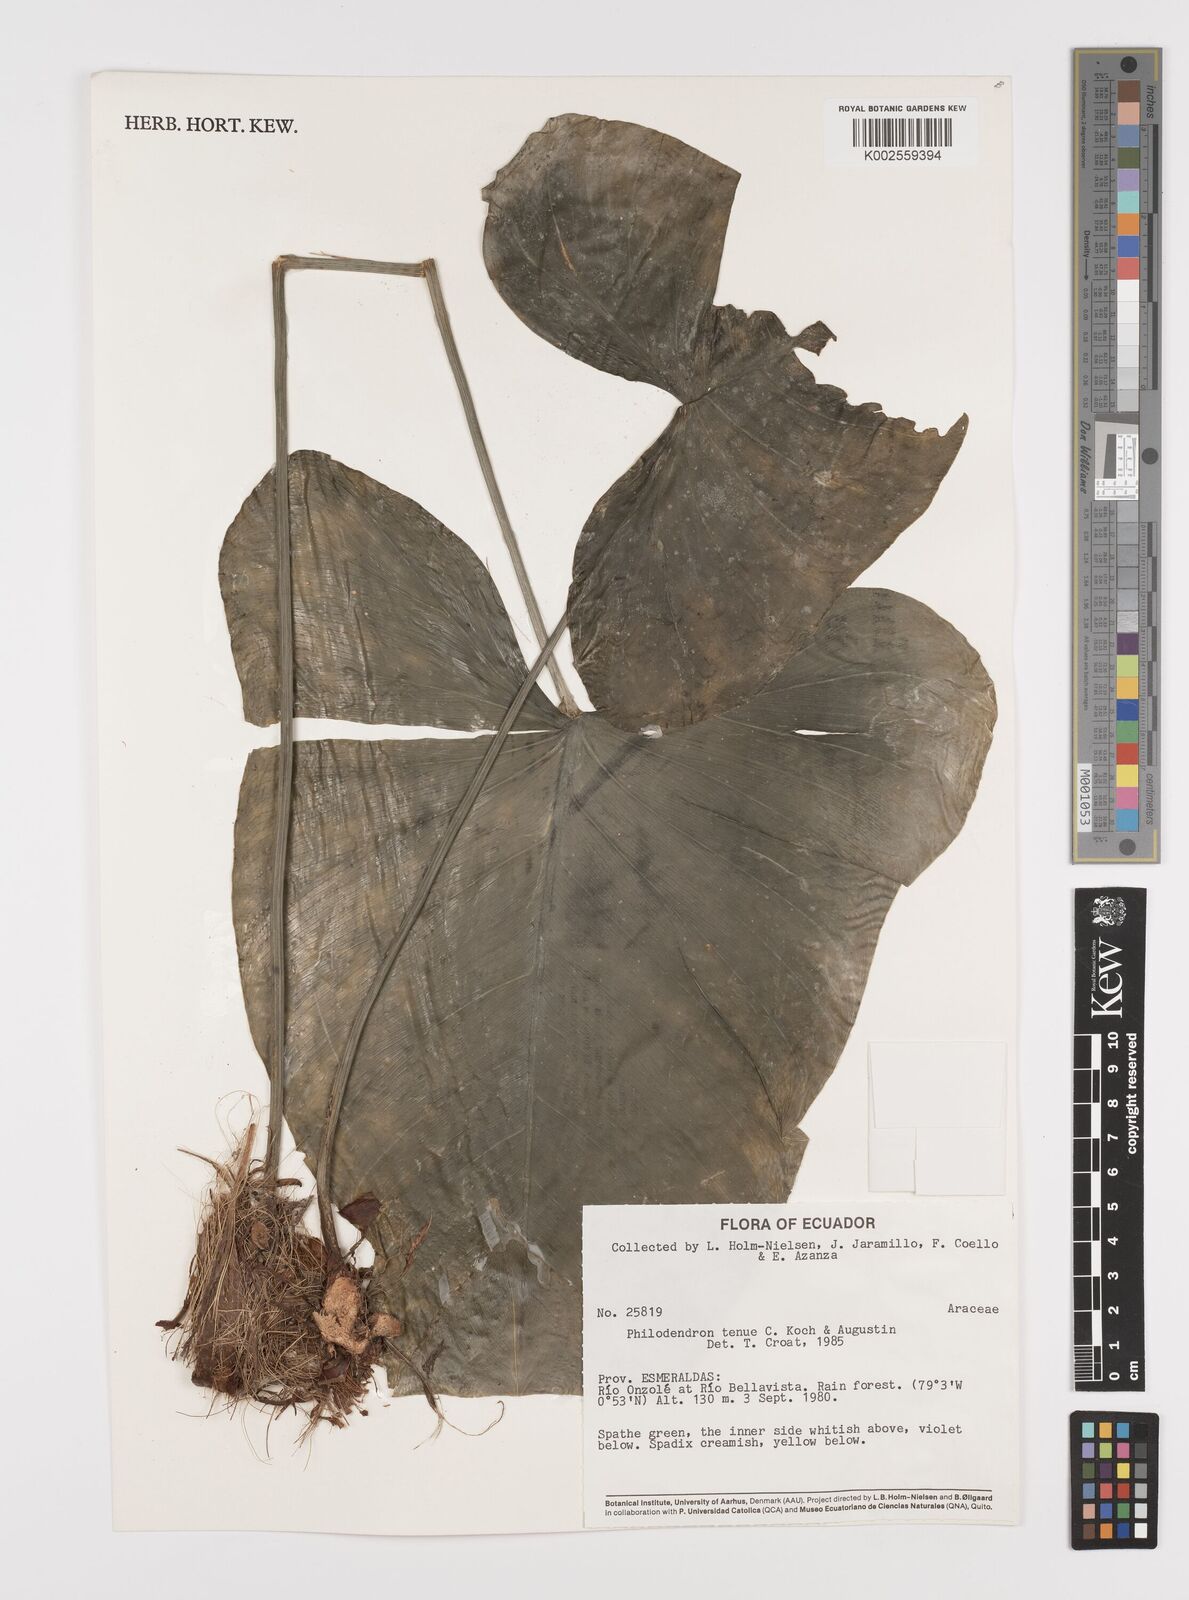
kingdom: Plantae
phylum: Tracheophyta
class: Liliopsida
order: Alismatales
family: Araceae
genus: Philodendron
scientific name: Philodendron tenue
